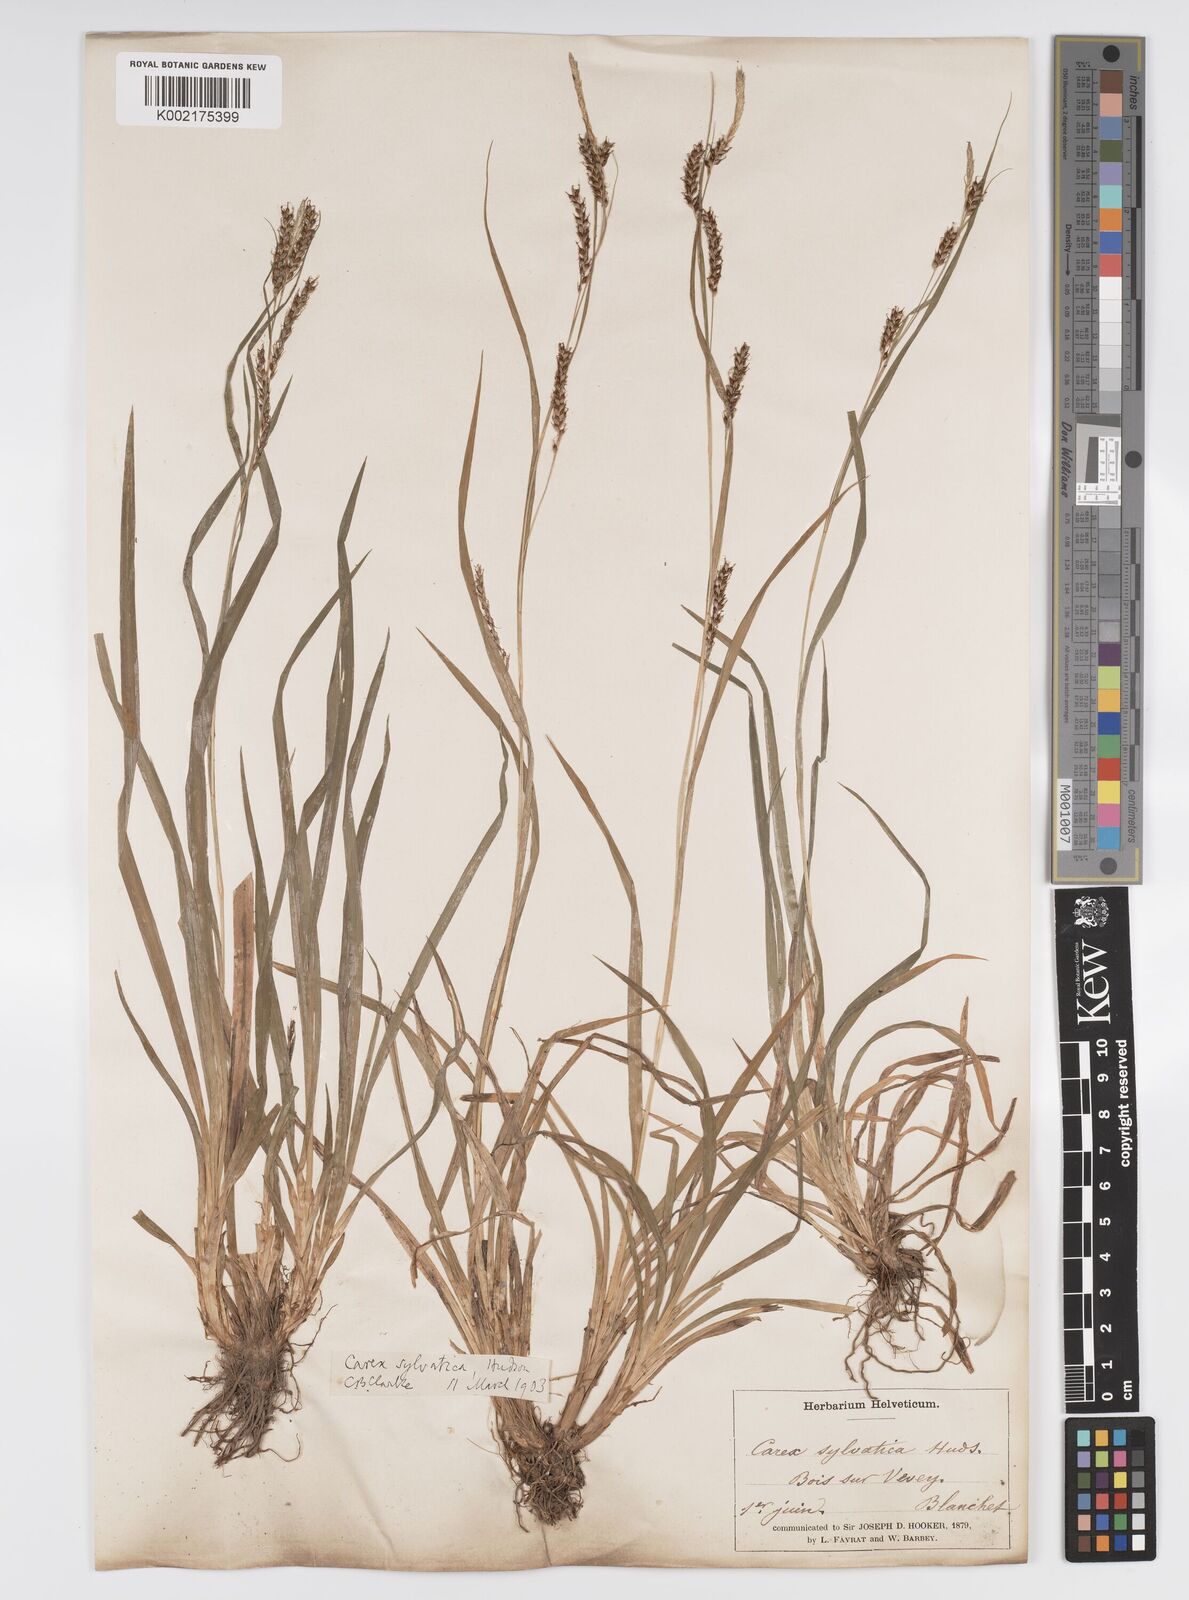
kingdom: Plantae
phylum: Tracheophyta
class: Liliopsida
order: Poales
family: Cyperaceae
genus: Carex
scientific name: Carex sylvatica
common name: Wood-sedge
